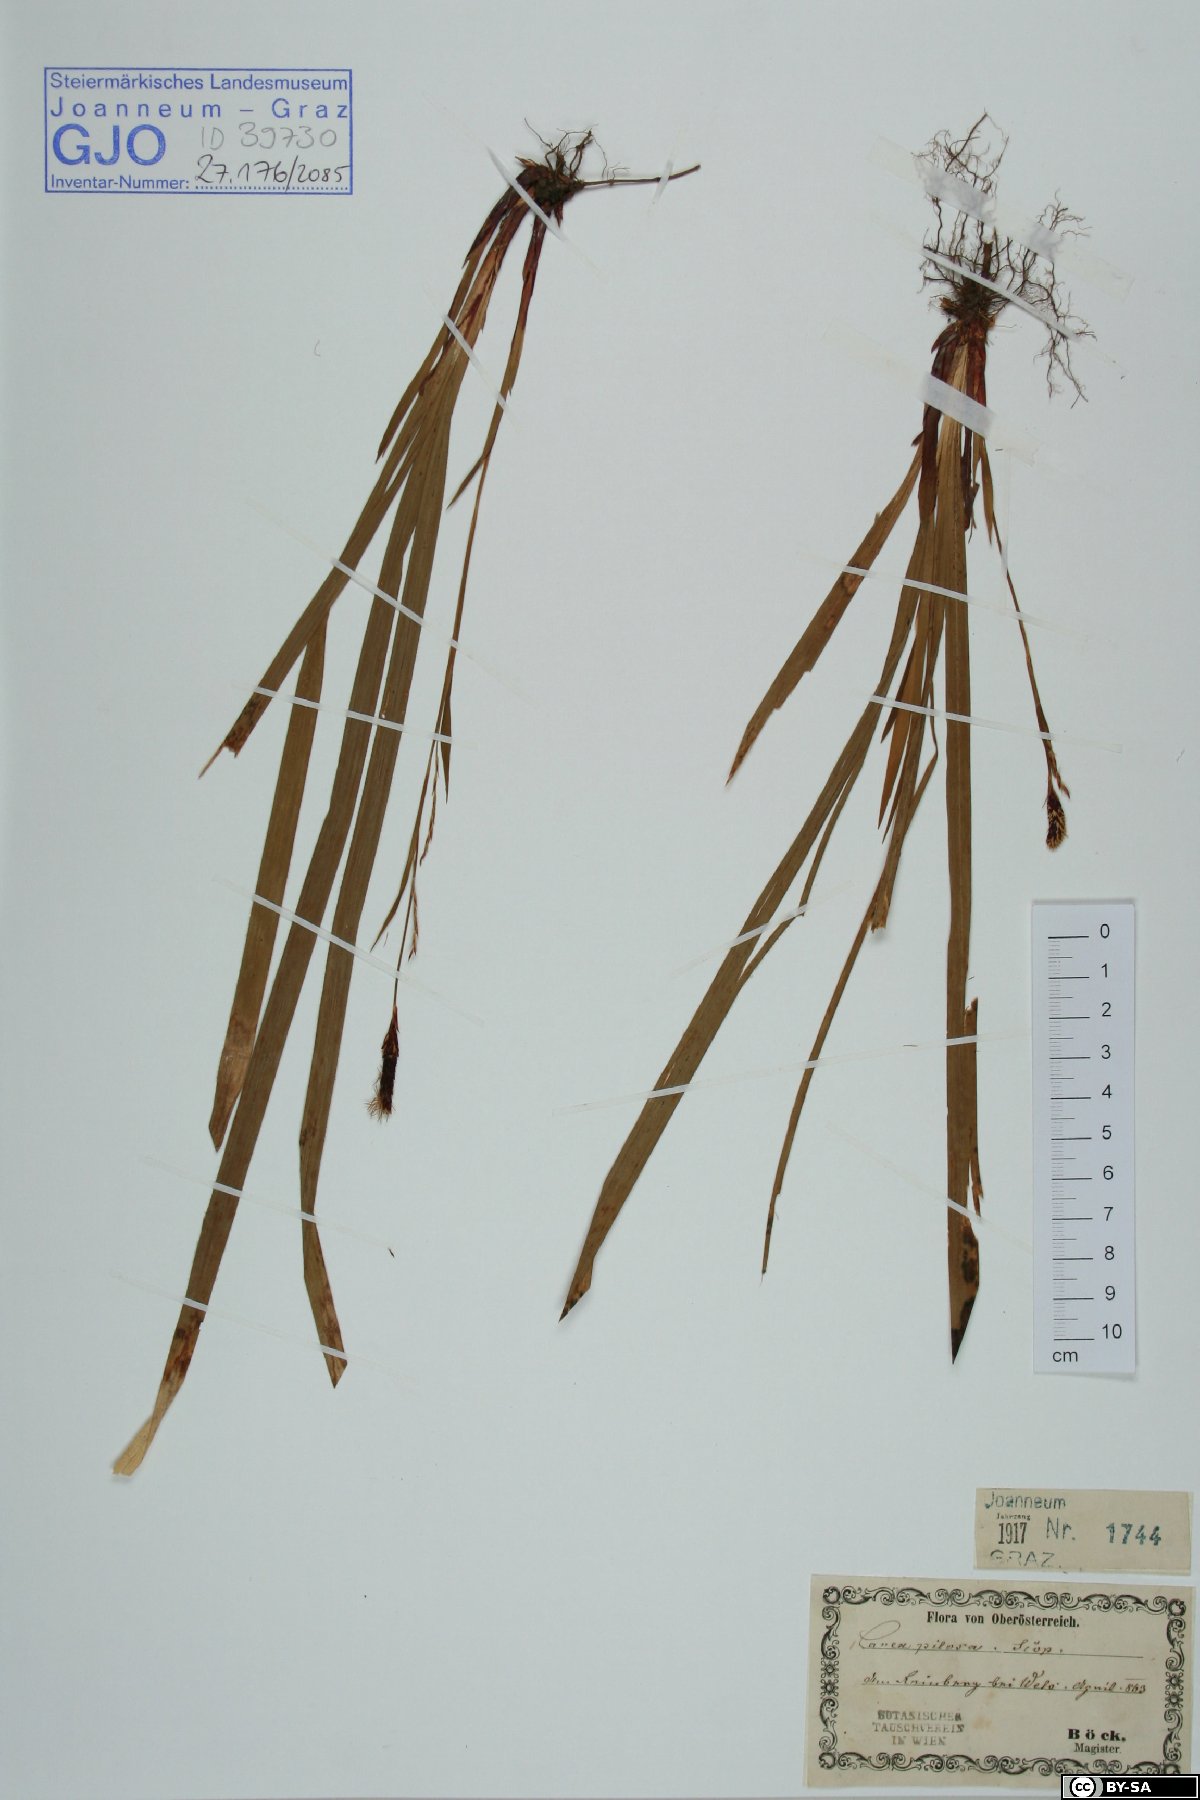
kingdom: Plantae
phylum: Tracheophyta
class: Liliopsida
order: Poales
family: Cyperaceae
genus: Carex
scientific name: Carex pilosa
